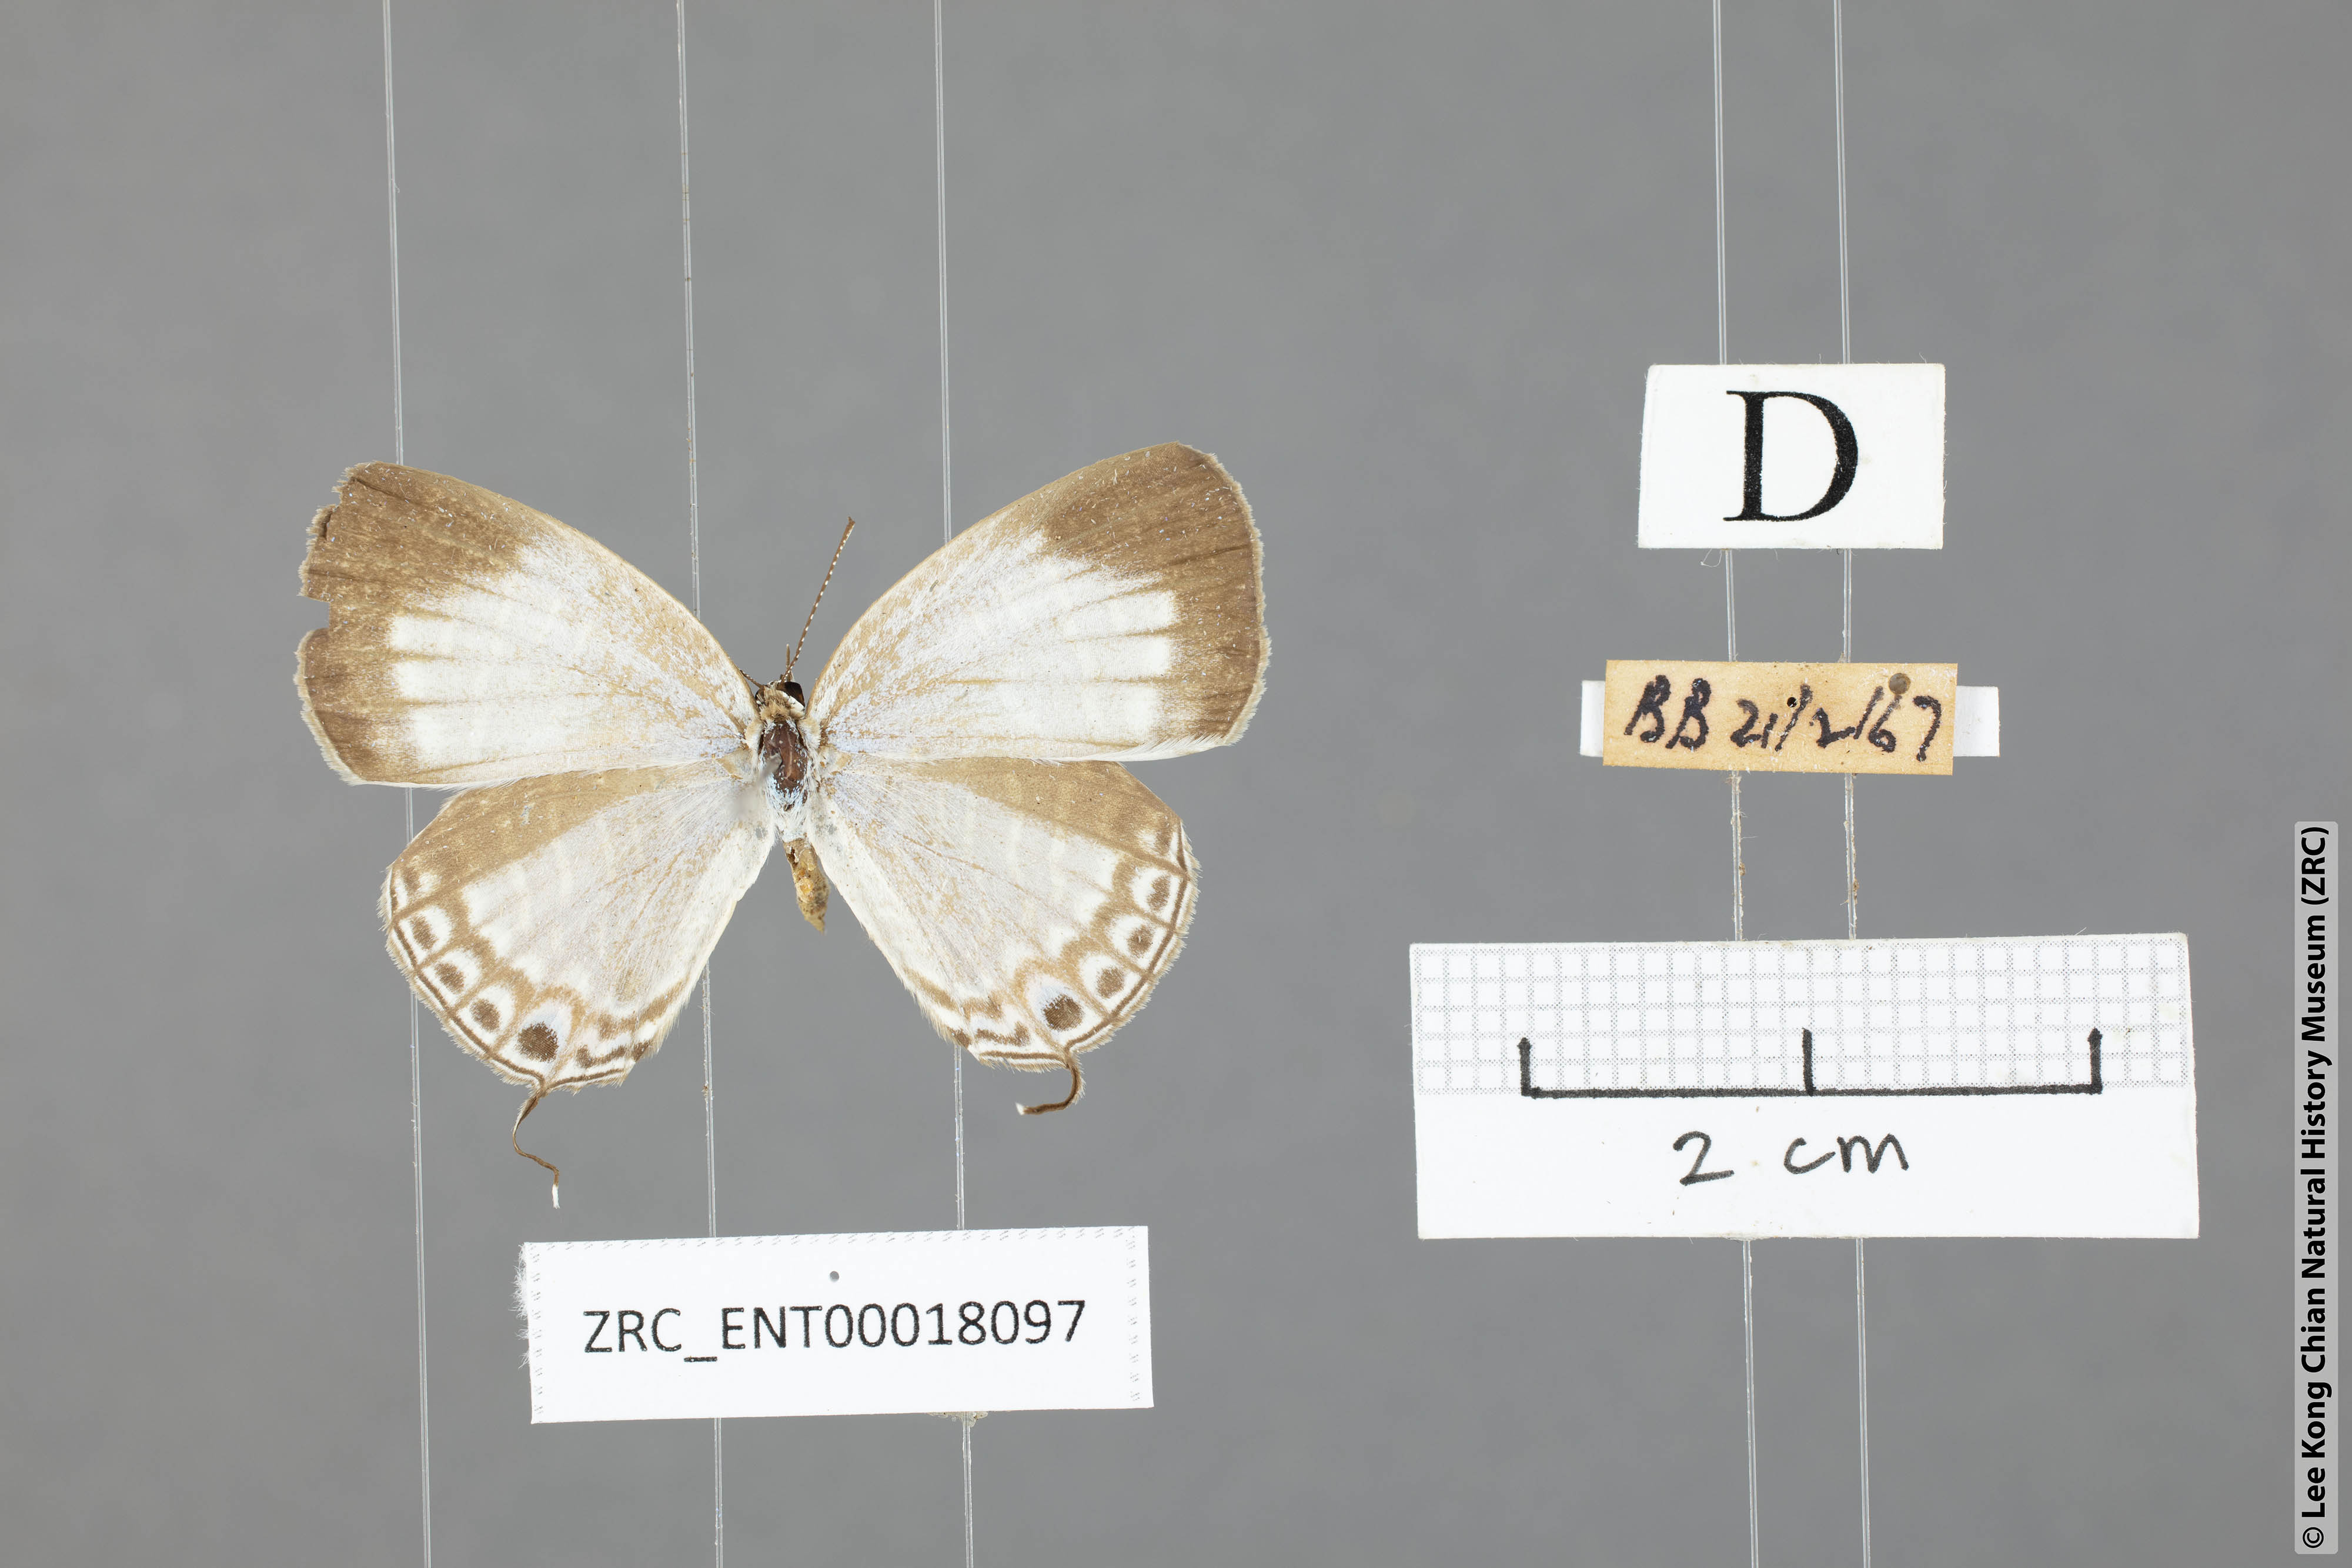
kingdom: Animalia
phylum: Arthropoda
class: Insecta
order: Lepidoptera
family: Lycaenidae
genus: Jamides
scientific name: Jamides celeno
